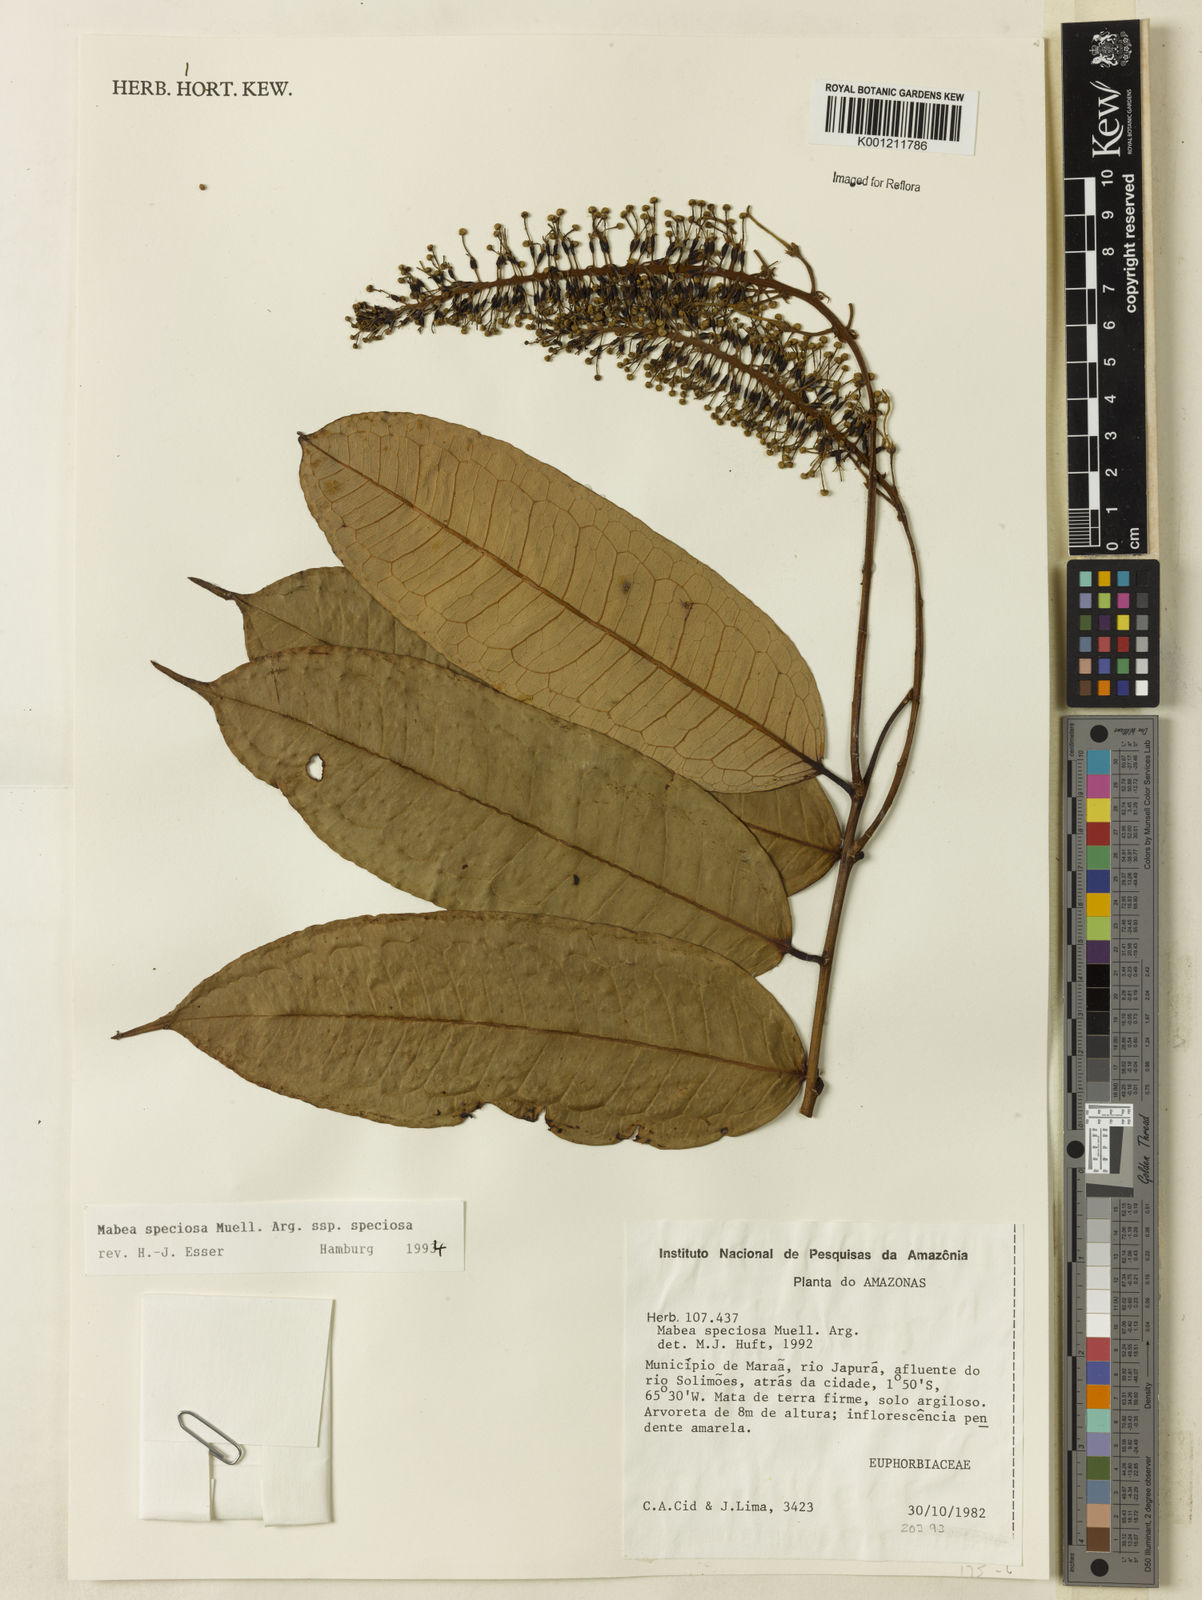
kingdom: Plantae
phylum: Tracheophyta
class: Magnoliopsida
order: Malpighiales
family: Euphorbiaceae
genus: Mabea
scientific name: Mabea
